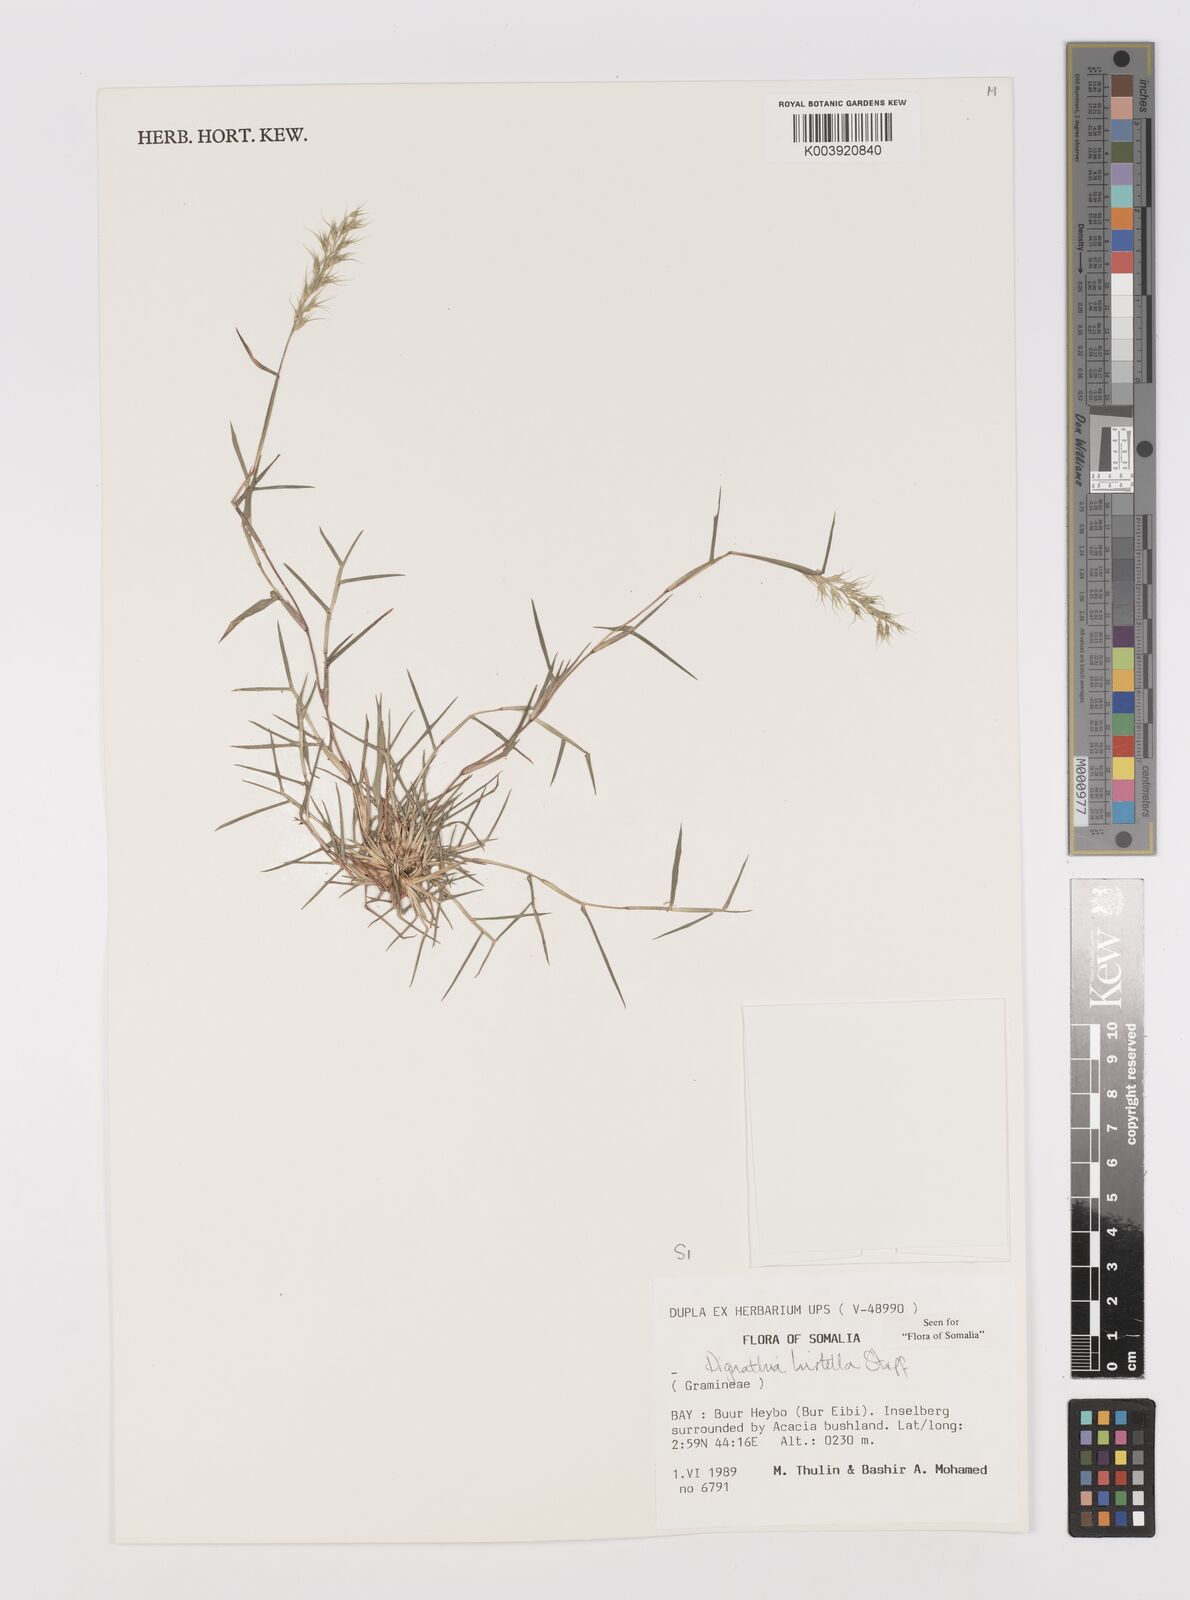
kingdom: Plantae
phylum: Tracheophyta
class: Liliopsida
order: Poales
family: Poaceae
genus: Dignathia
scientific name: Dignathia hirtella
